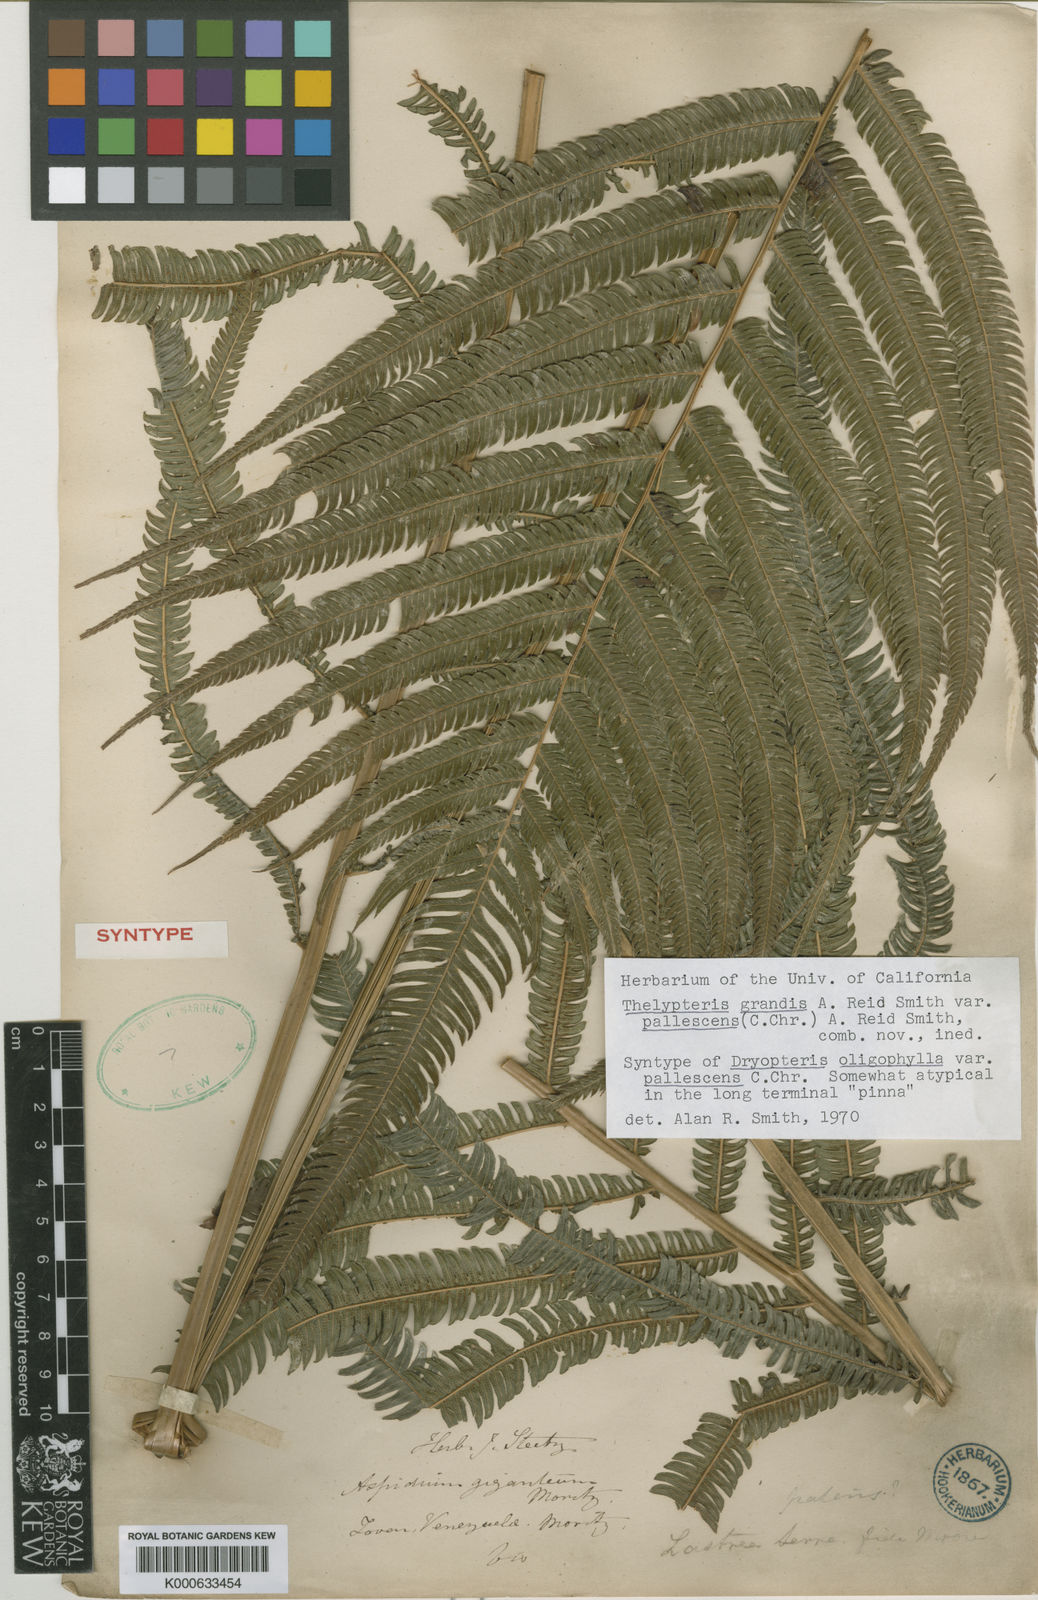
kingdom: Plantae
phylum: Tracheophyta
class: Polypodiopsida
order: Polypodiales
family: Thelypteridaceae
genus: Christella
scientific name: Christella
